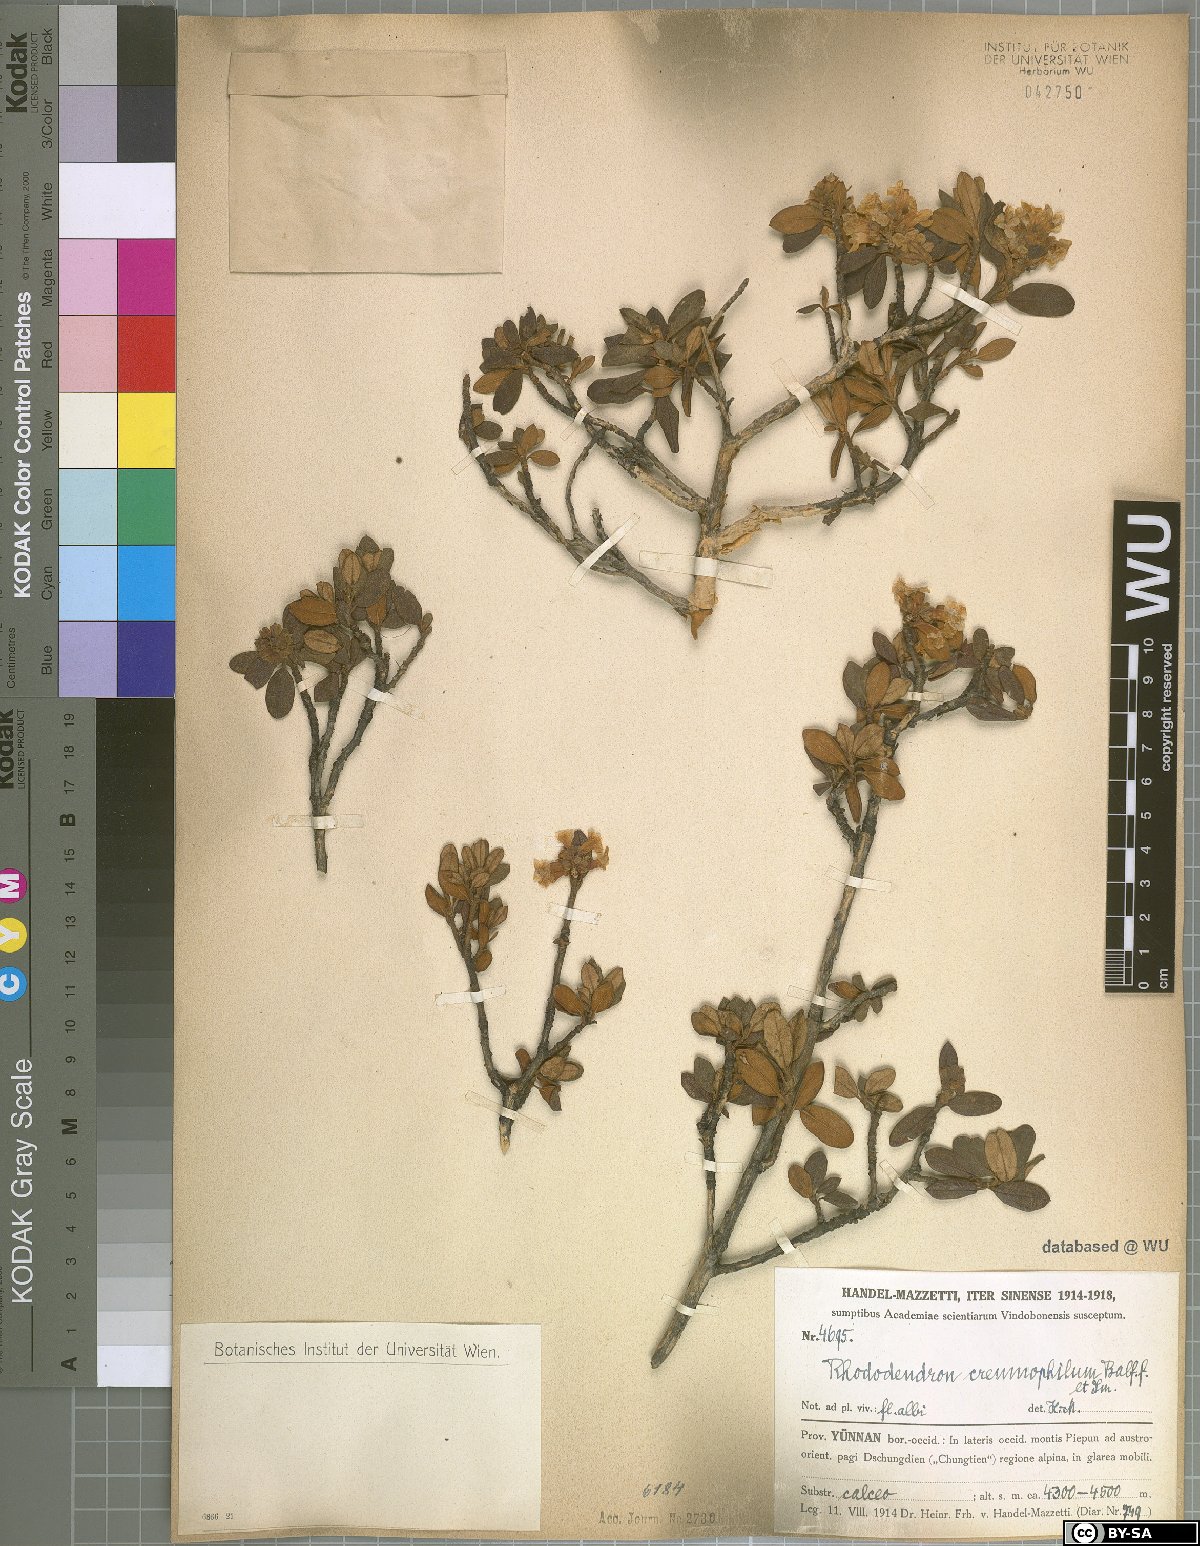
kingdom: Plantae
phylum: Tracheophyta
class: Magnoliopsida
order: Ericales
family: Ericaceae
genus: Rhododendron
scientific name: Rhododendron primuliflorum
